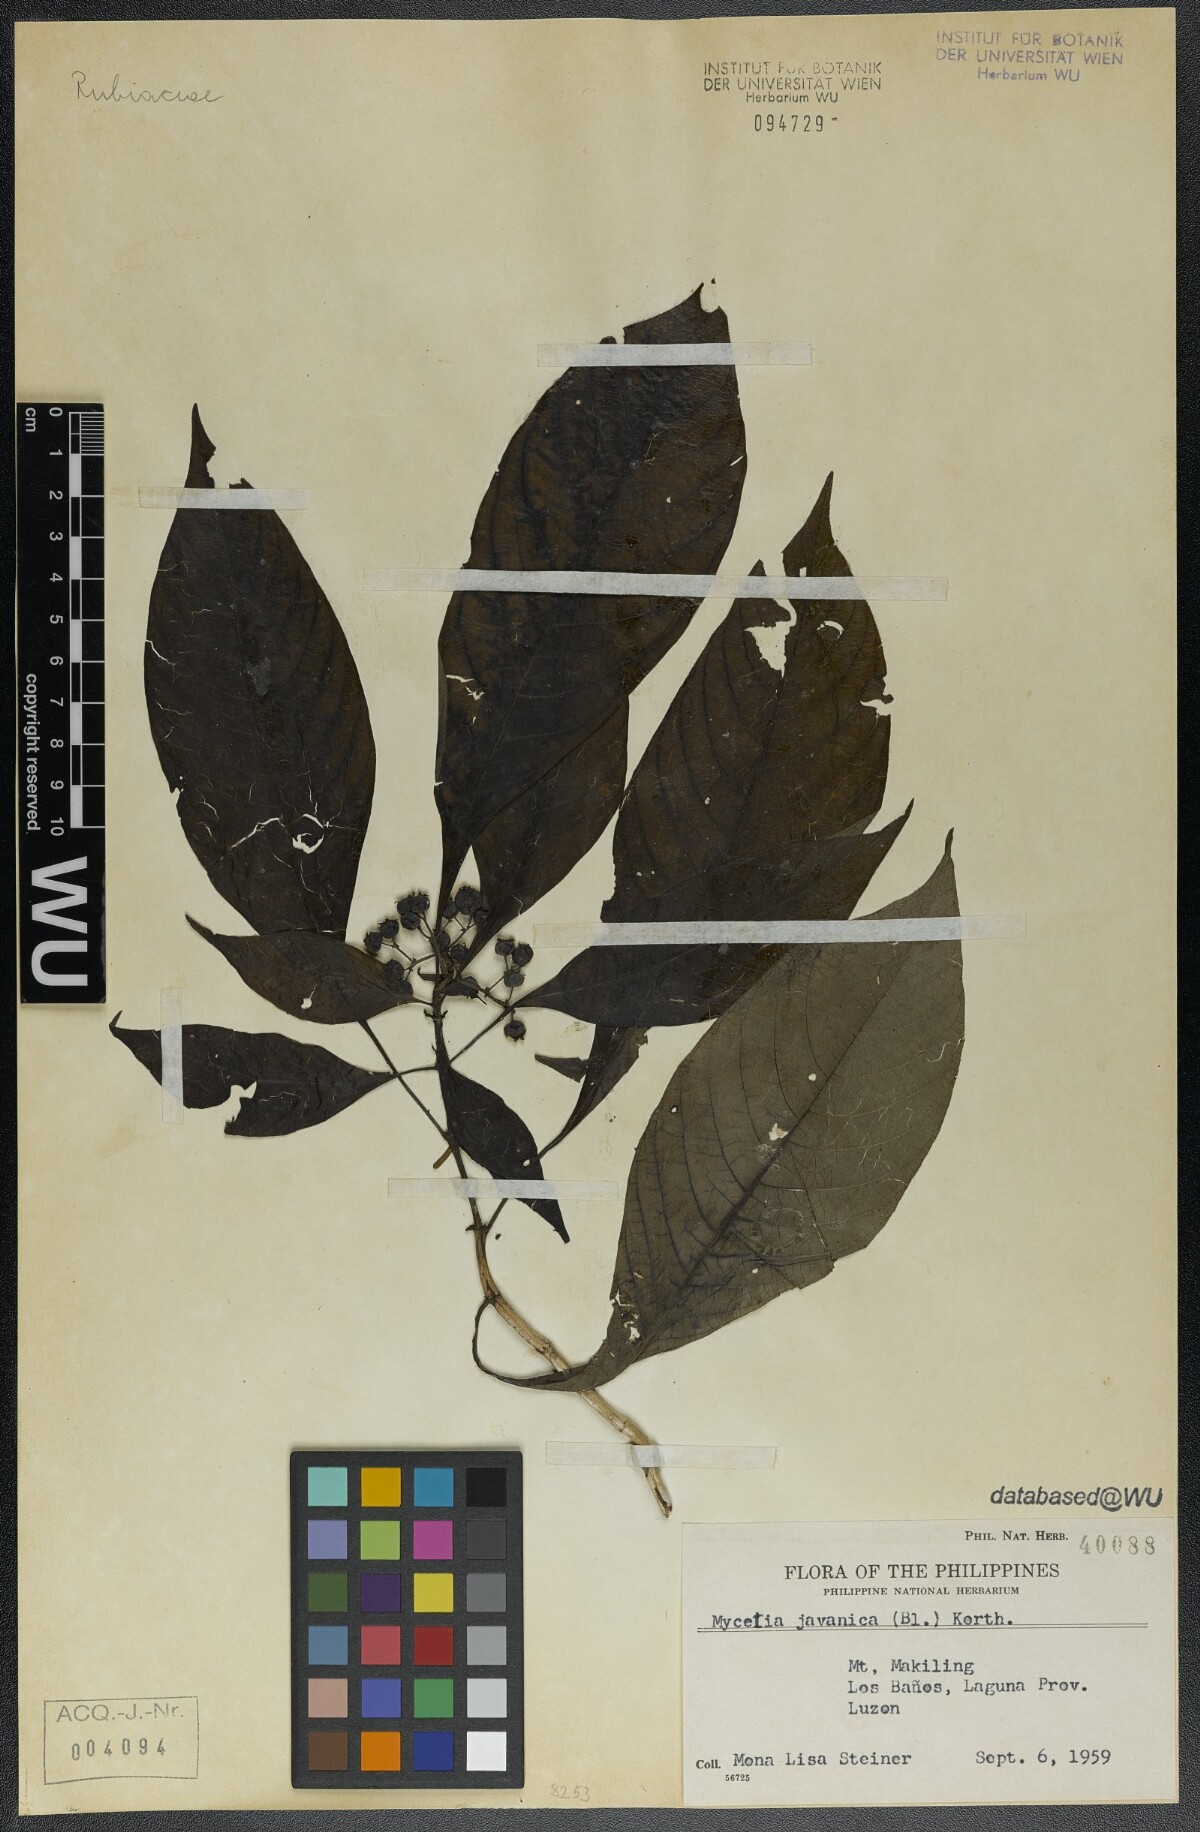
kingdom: Plantae
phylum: Tracheophyta
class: Magnoliopsida
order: Gentianales
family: Rubiaceae
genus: Mycetia
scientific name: Mycetia javanica
